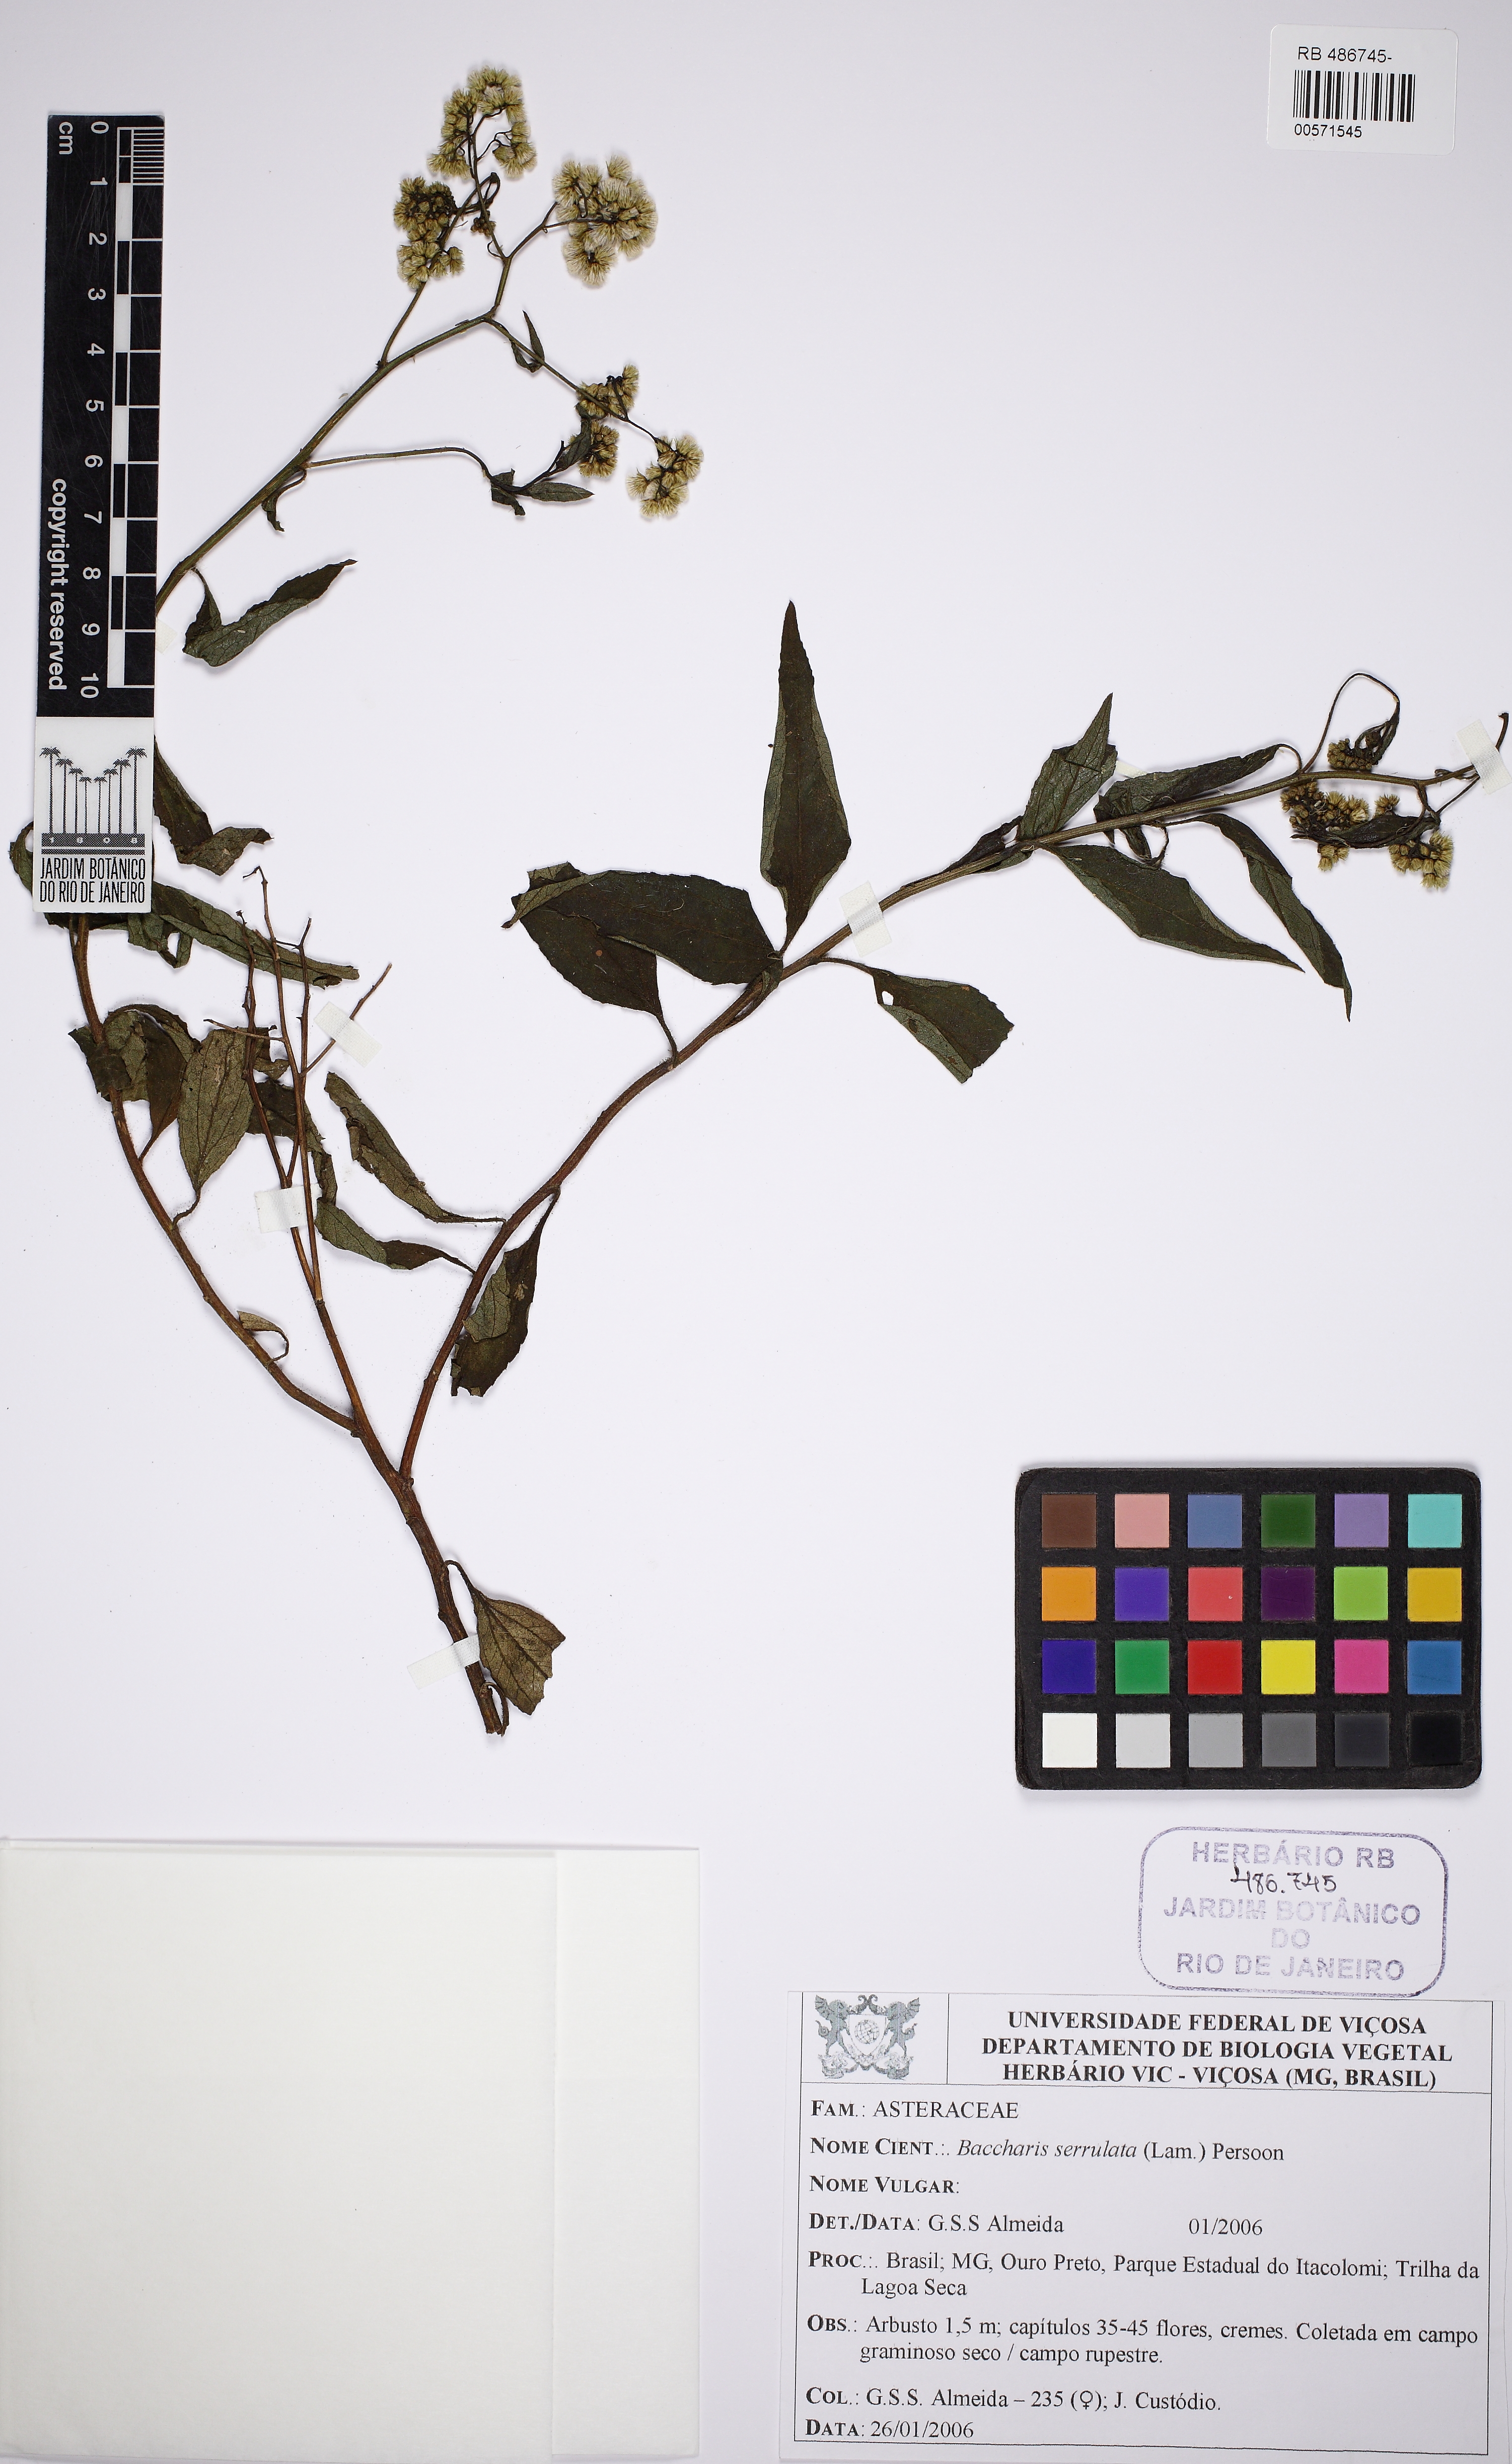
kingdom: Plantae
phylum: Tracheophyta
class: Magnoliopsida
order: Asterales
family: Asteraceae
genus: Baccharis
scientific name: Baccharis serrulata
